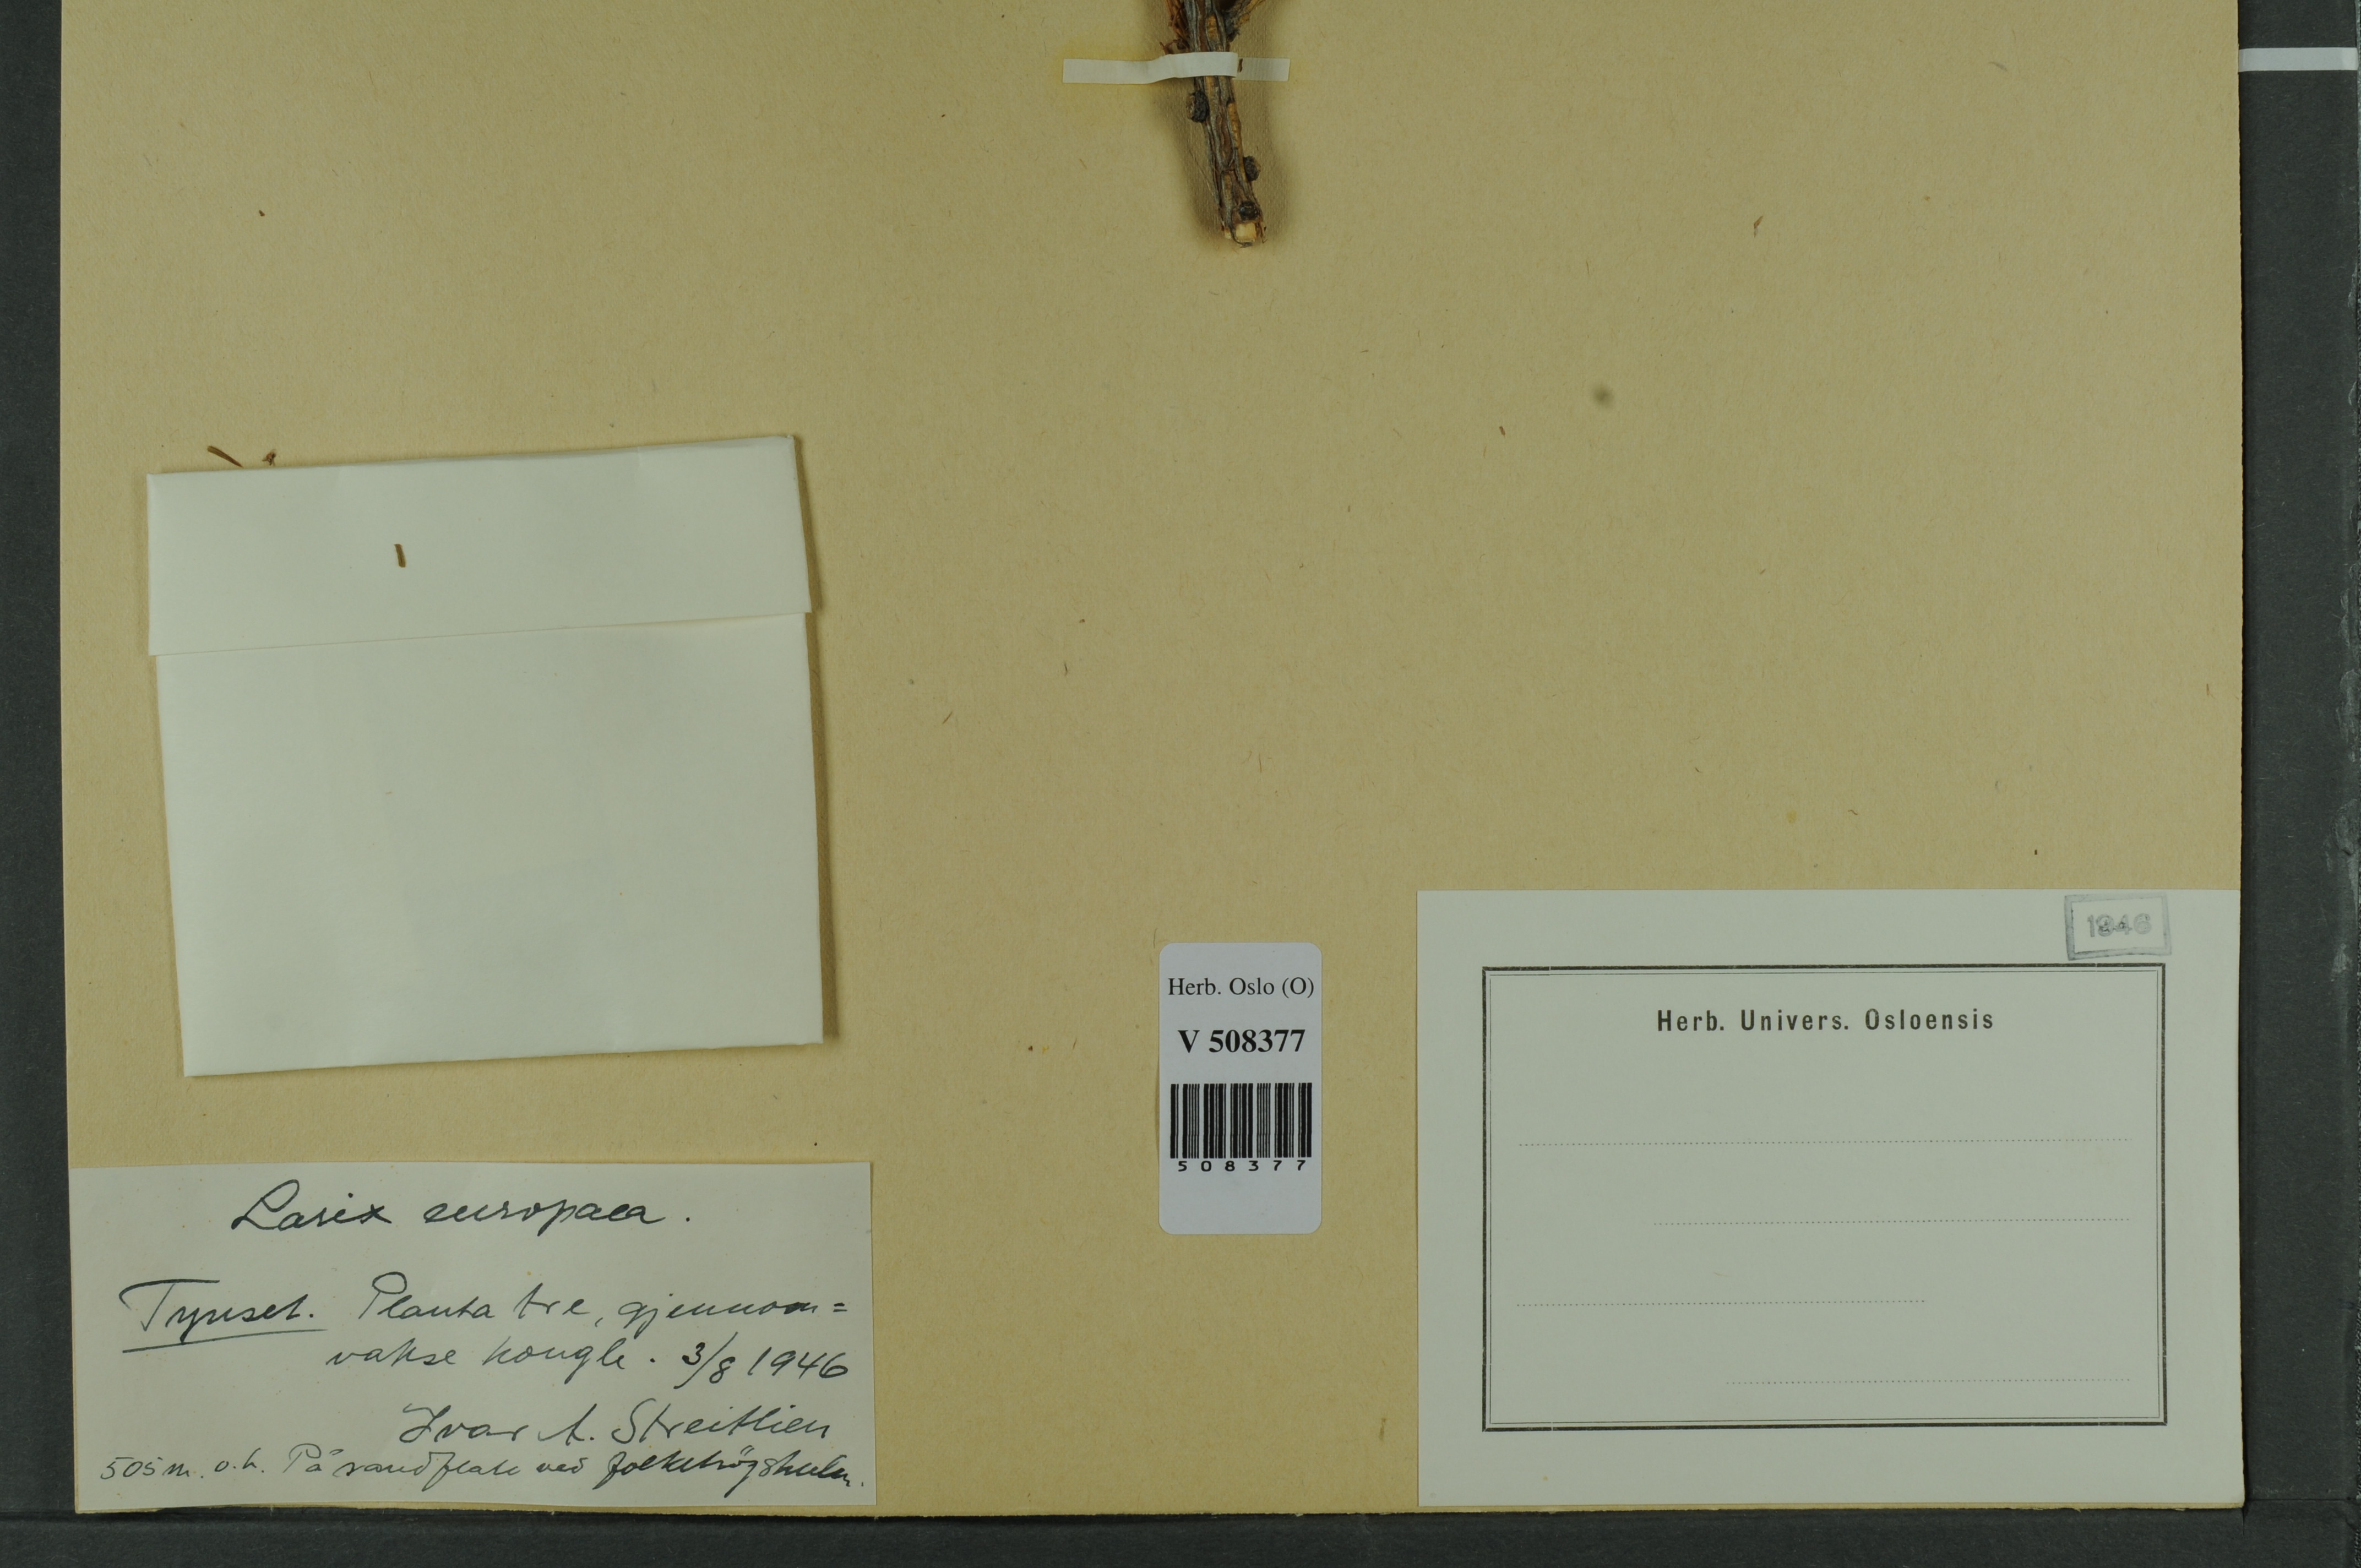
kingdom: Plantae
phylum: Tracheophyta
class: Pinopsida
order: Pinales
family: Pinaceae
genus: Larix
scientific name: Larix decidua
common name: European larch
